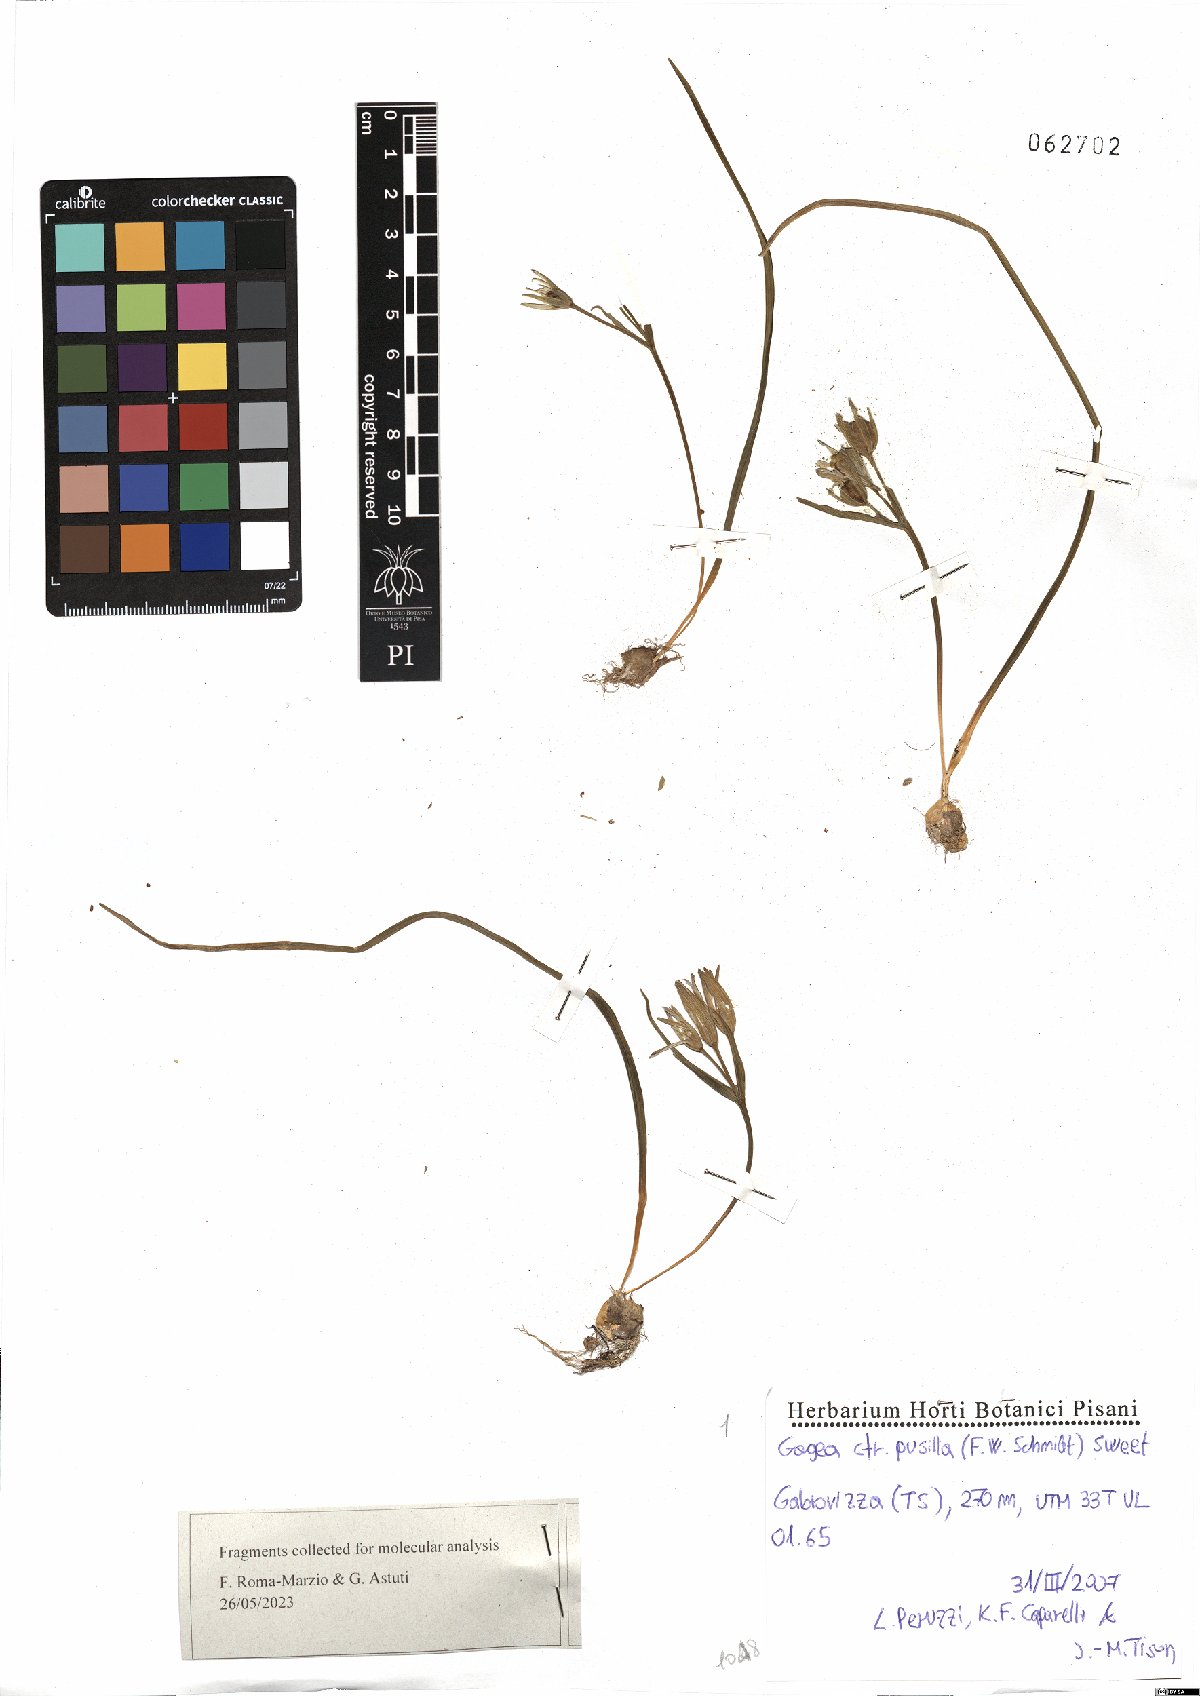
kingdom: Plantae
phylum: Tracheophyta
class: Liliopsida
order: Liliales
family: Liliaceae
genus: Gagea
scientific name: Gagea pusilla
